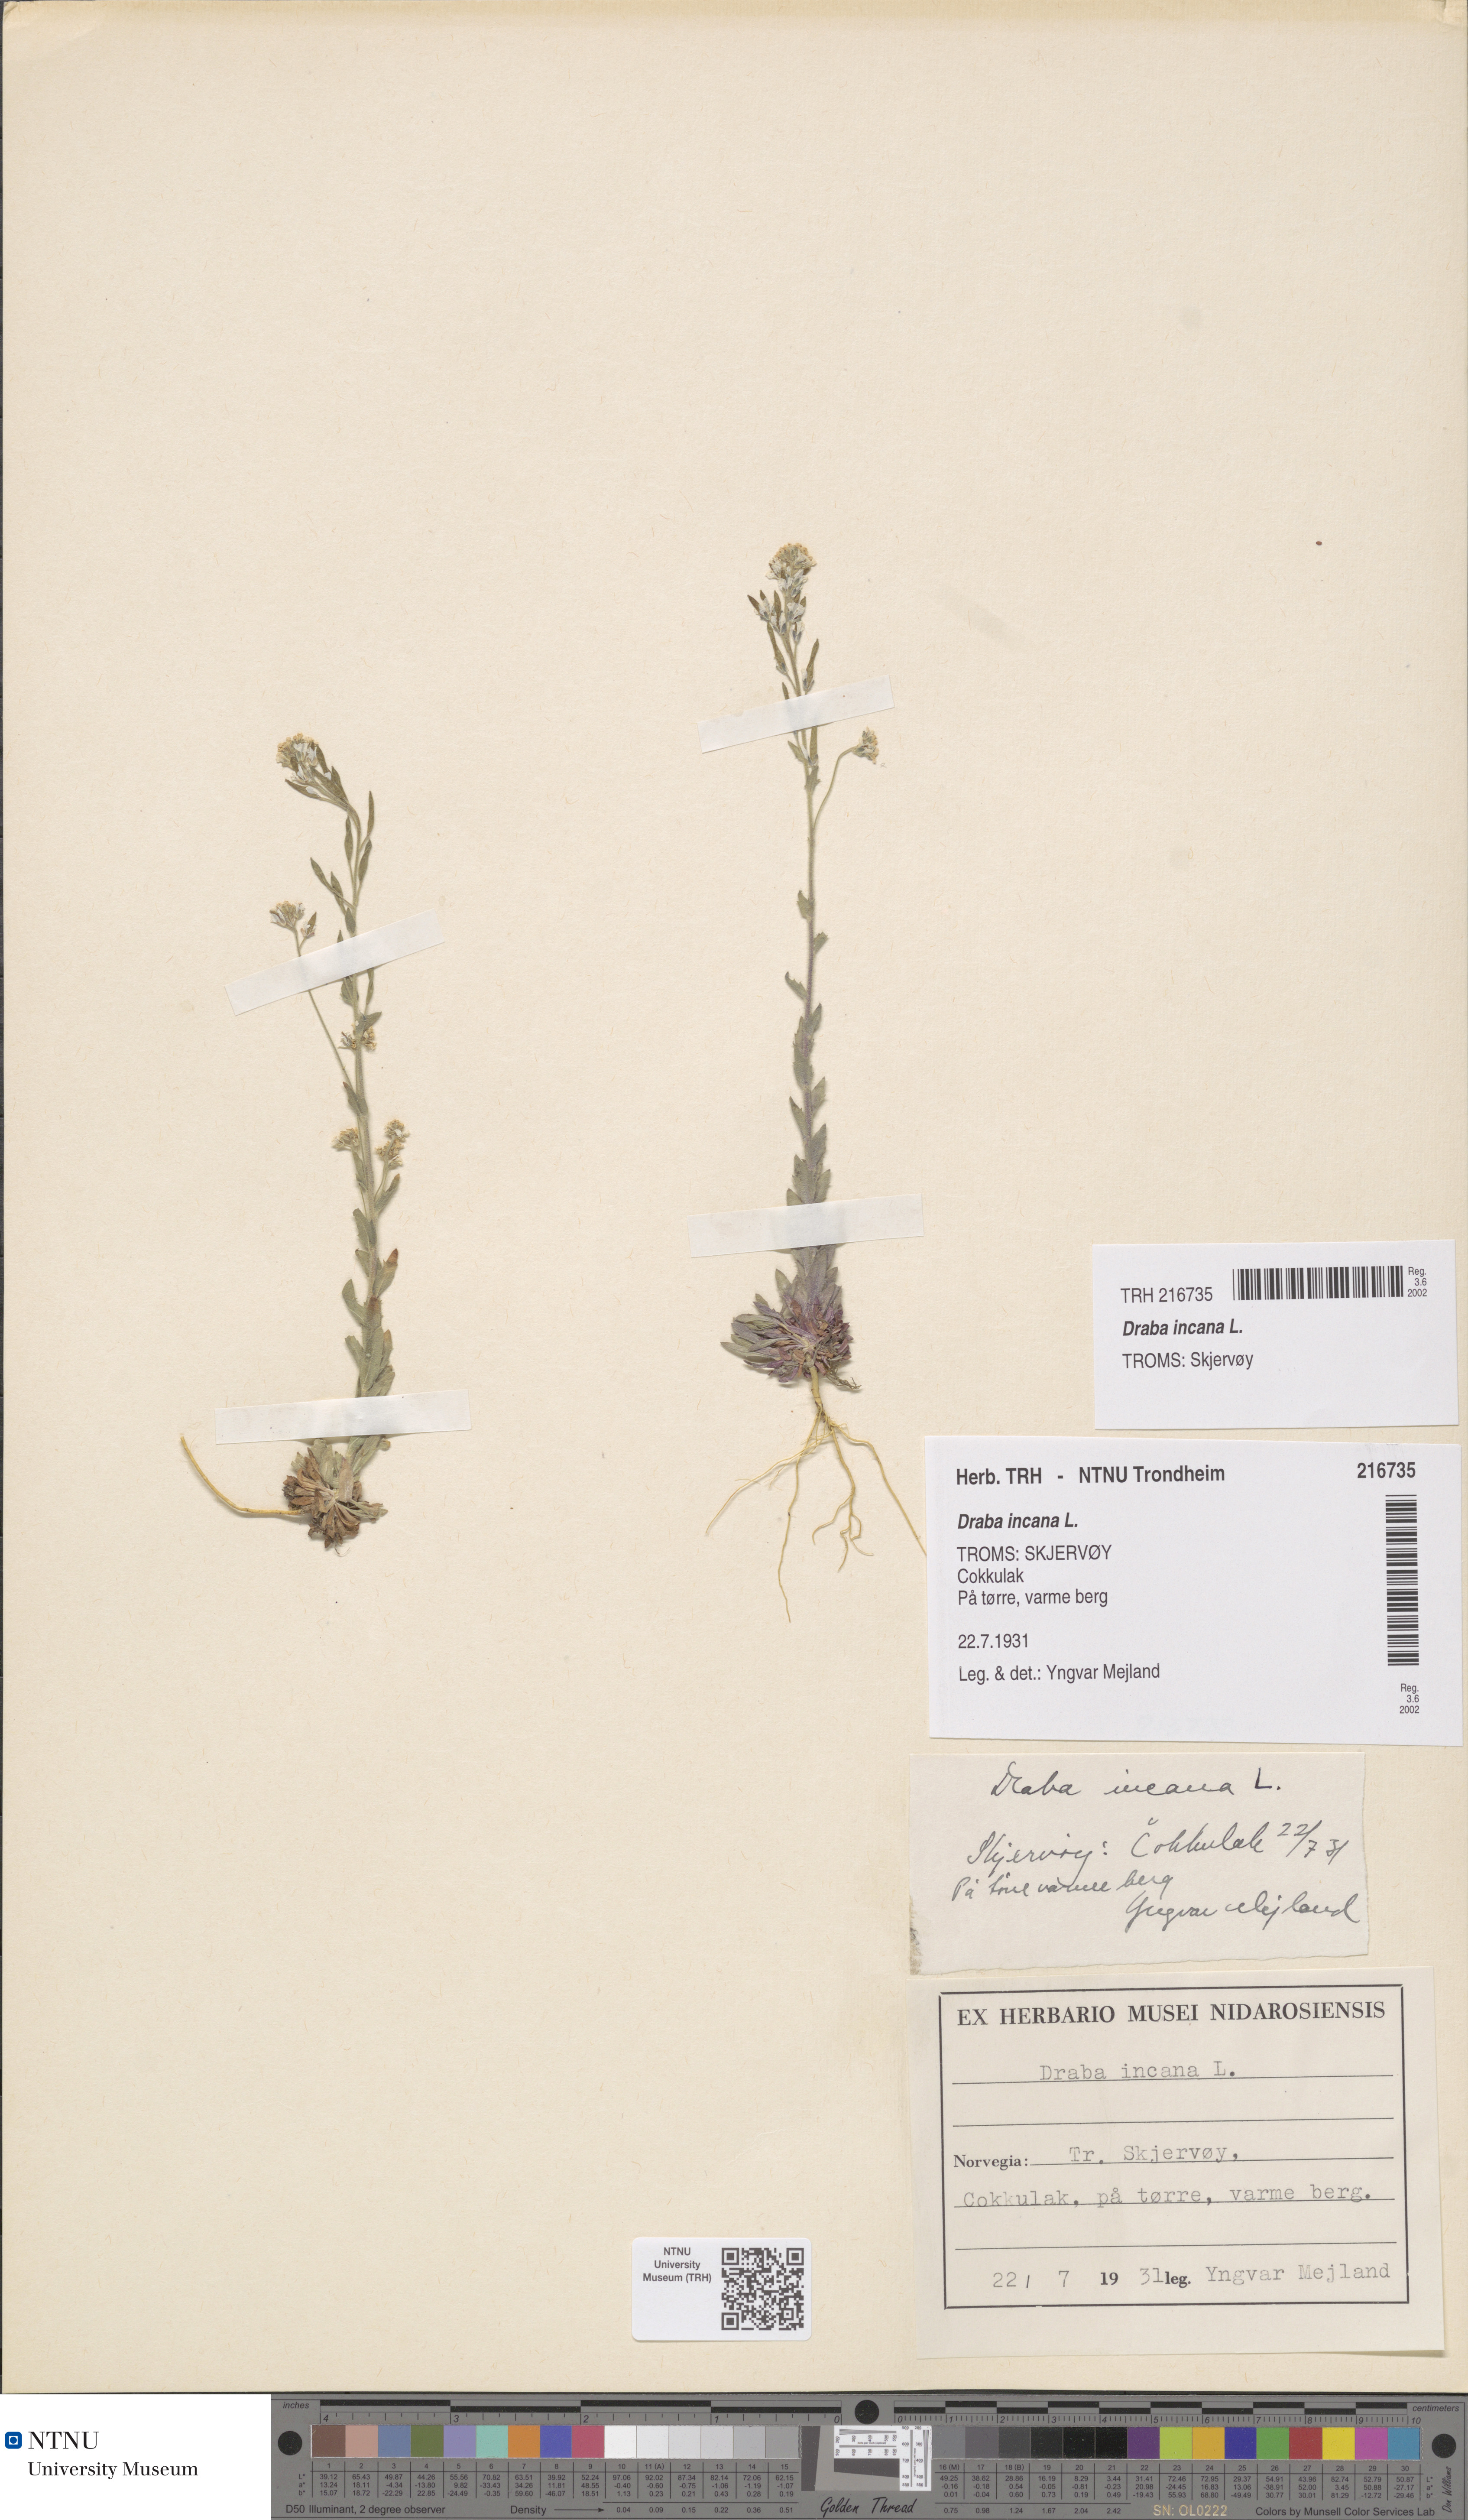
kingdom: Plantae
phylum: Tracheophyta
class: Magnoliopsida
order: Brassicales
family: Brassicaceae
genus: Draba
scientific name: Draba incana
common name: Hoary whitlow-grass
